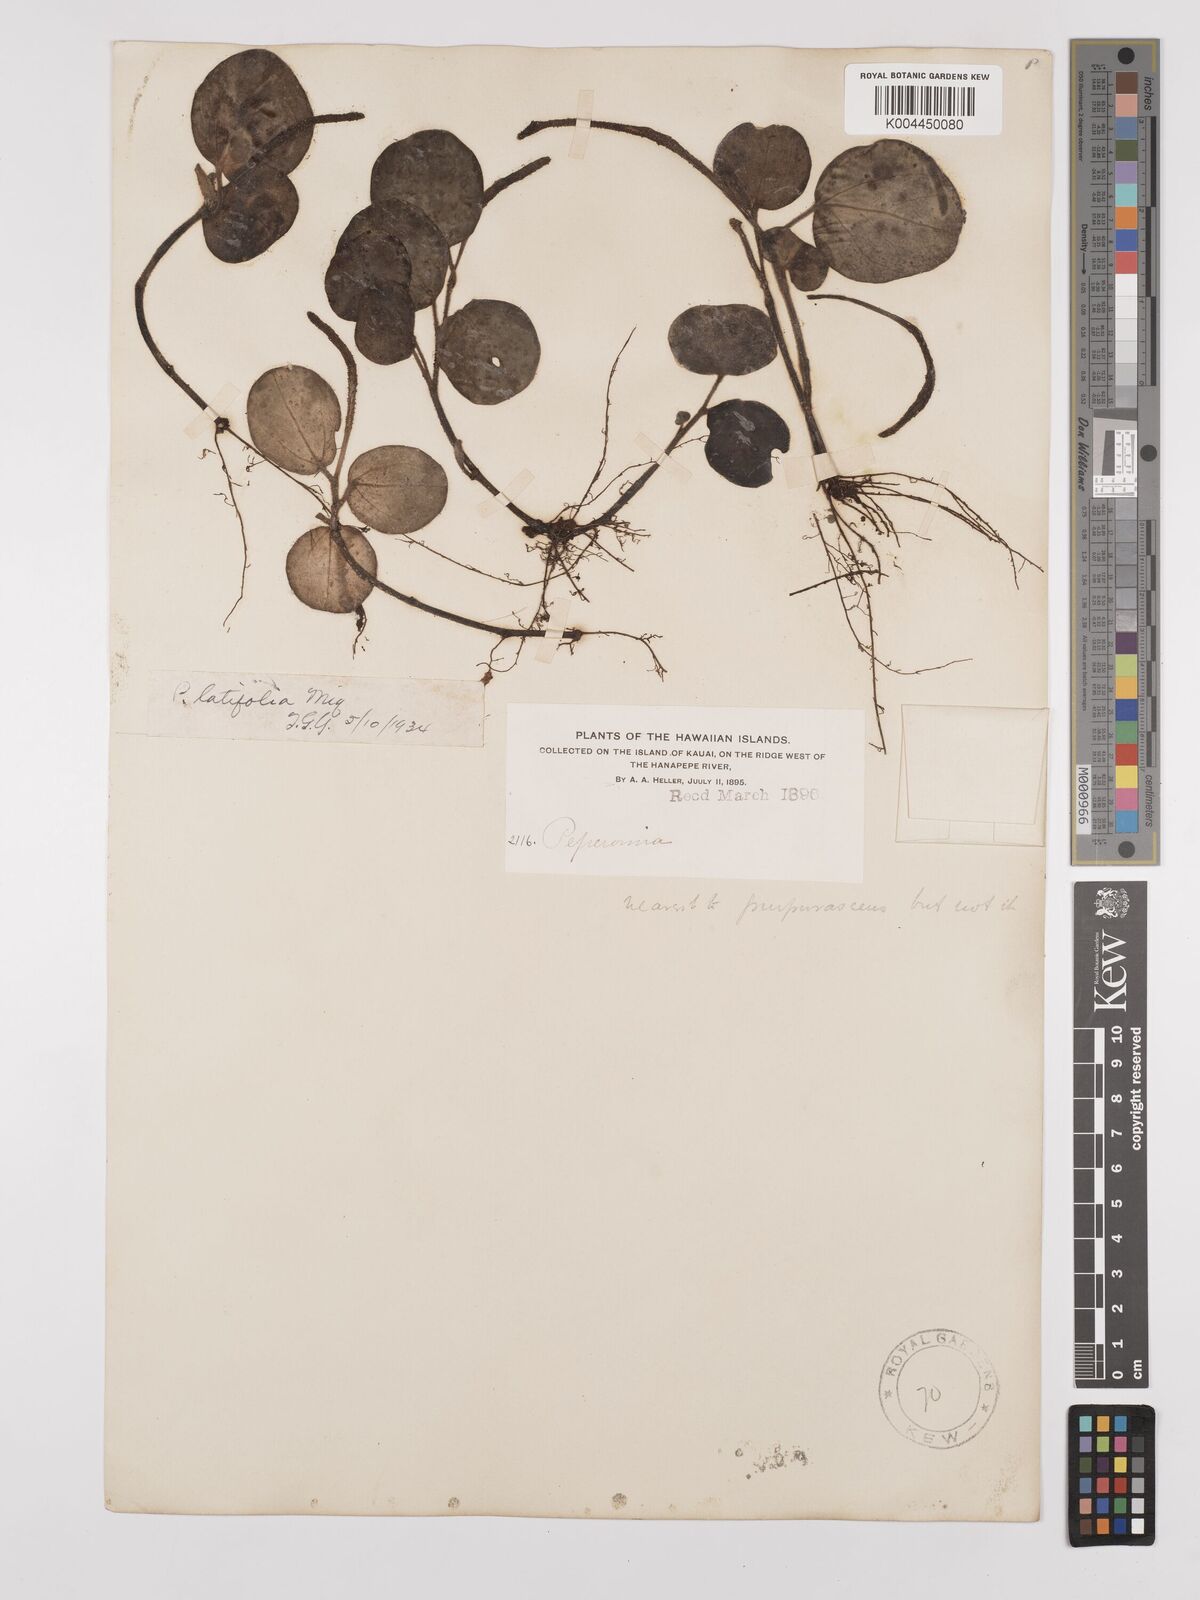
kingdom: Plantae
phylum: Tracheophyta
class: Magnoliopsida
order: Piperales
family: Piperaceae
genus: Peperomia
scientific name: Peperomia latifolia
